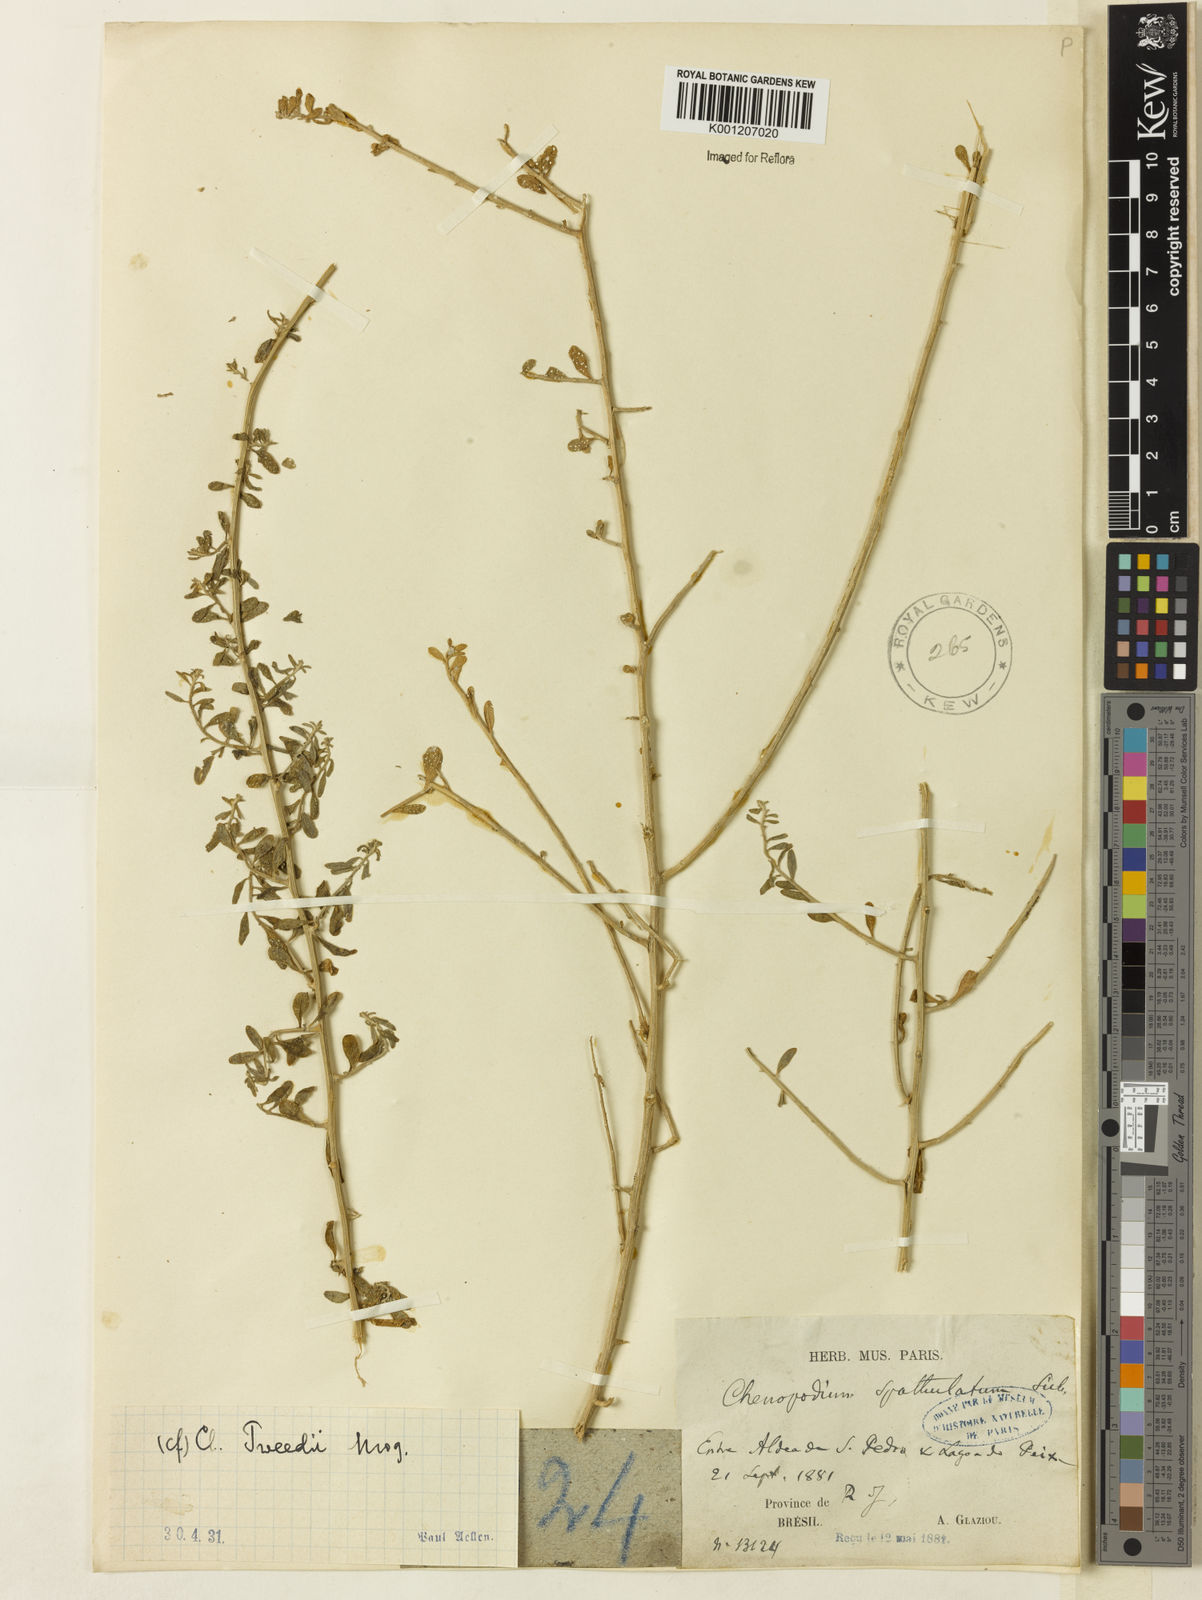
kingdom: Plantae
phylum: Tracheophyta
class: Magnoliopsida
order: Caryophyllales
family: Amaranthaceae
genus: Holmbergia
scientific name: Holmbergia tweedii
